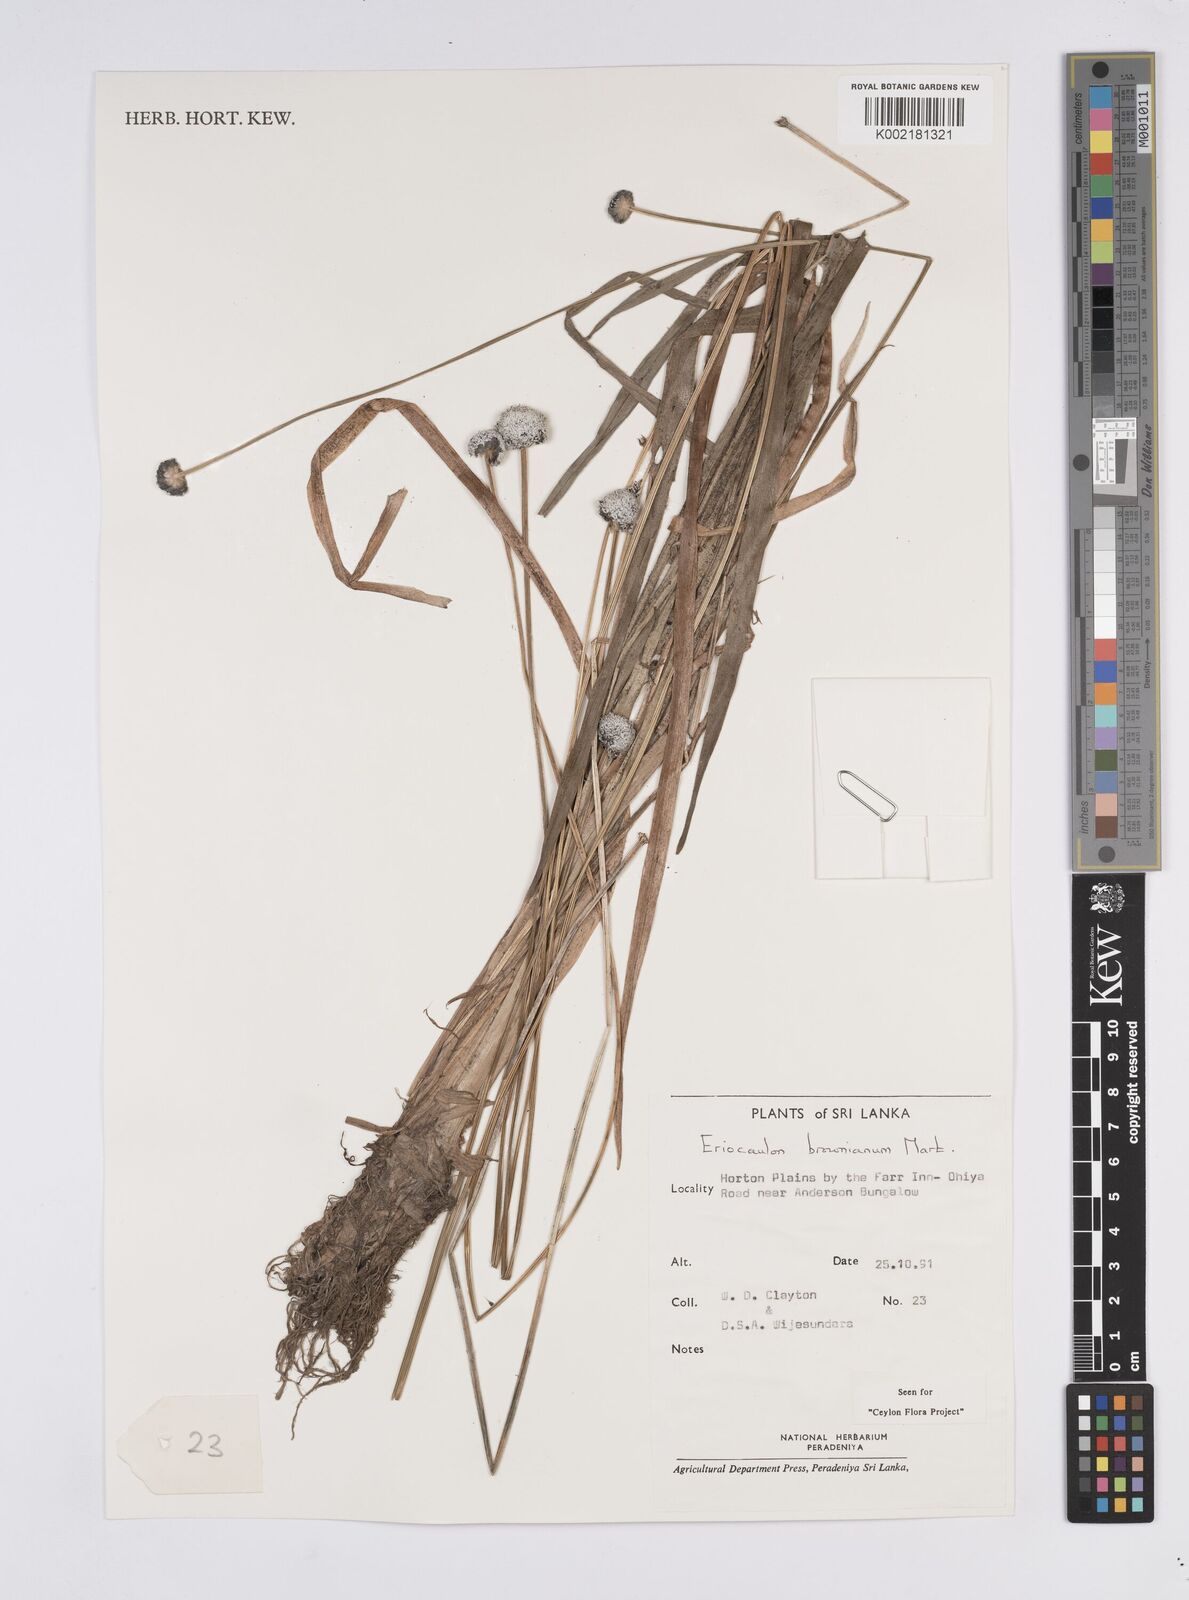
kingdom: Plantae
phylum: Tracheophyta
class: Liliopsida
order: Poales
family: Eriocaulaceae
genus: Eriocaulon
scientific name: Eriocaulon brownianum
